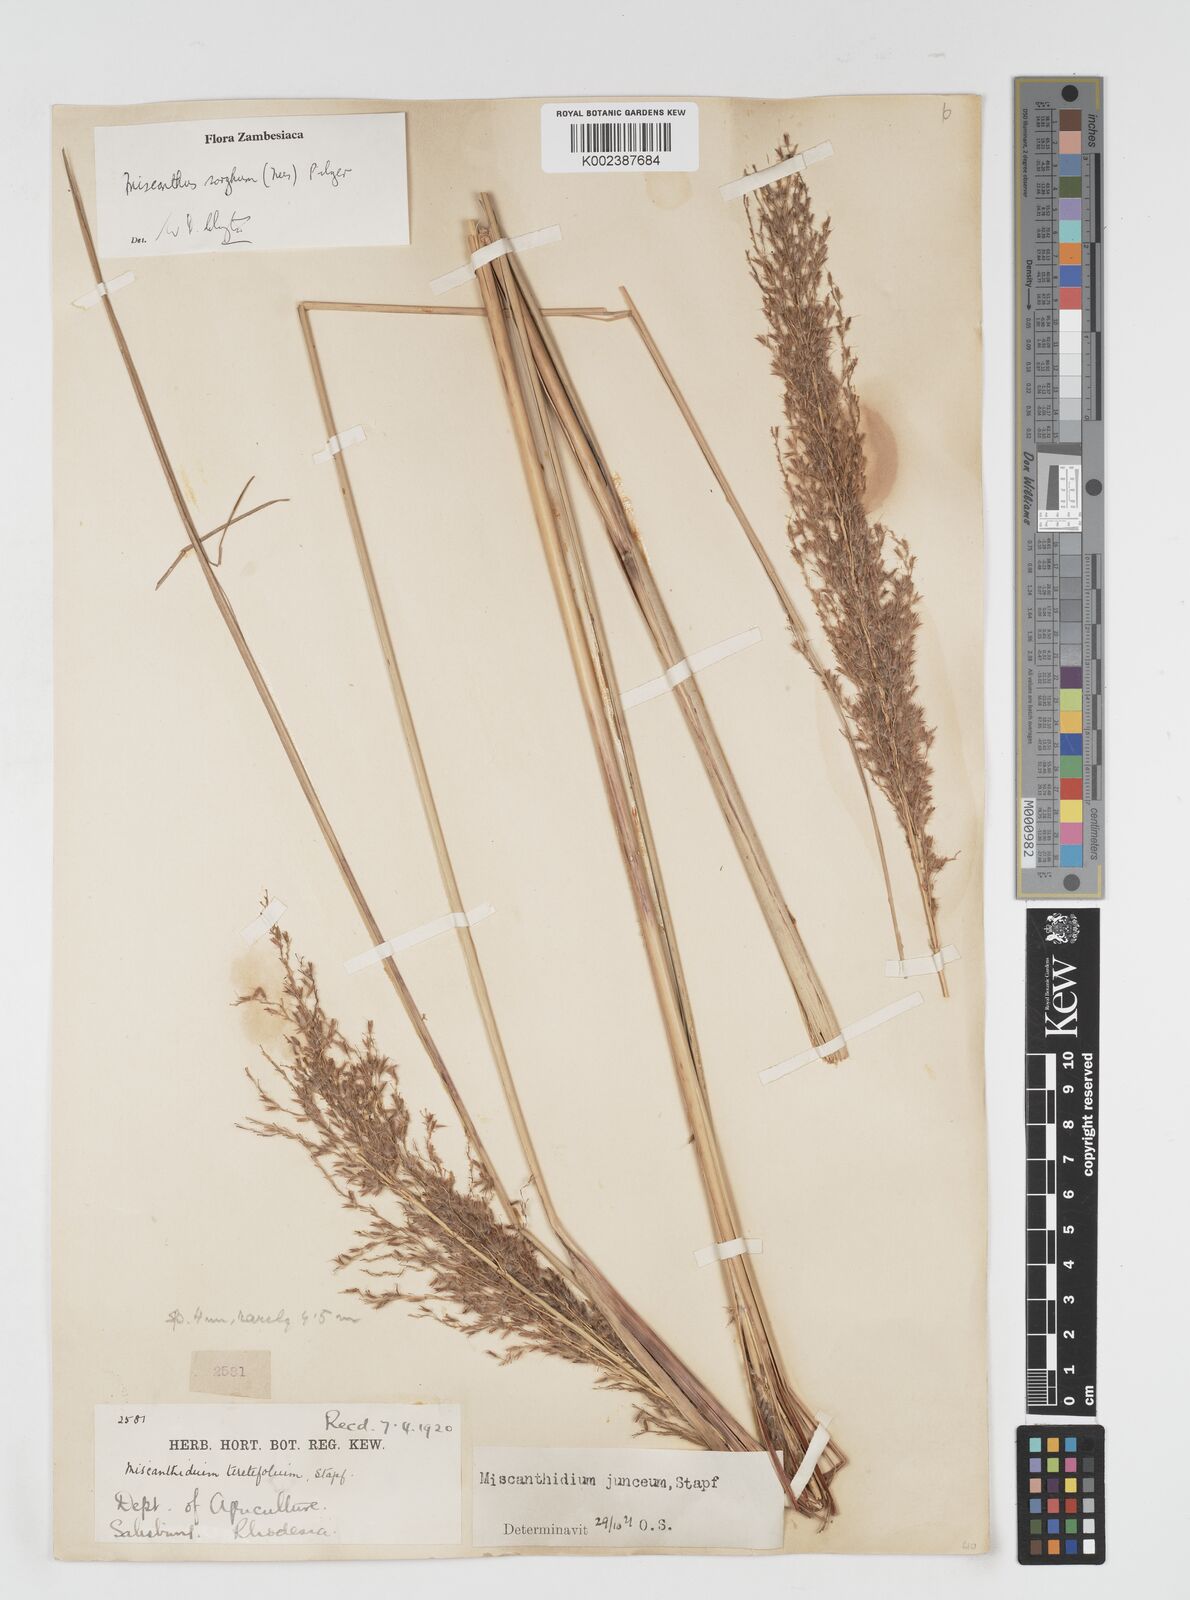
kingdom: Plantae
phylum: Tracheophyta
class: Liliopsida
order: Poales
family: Poaceae
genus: Miscanthus
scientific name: Miscanthus ecklonii
